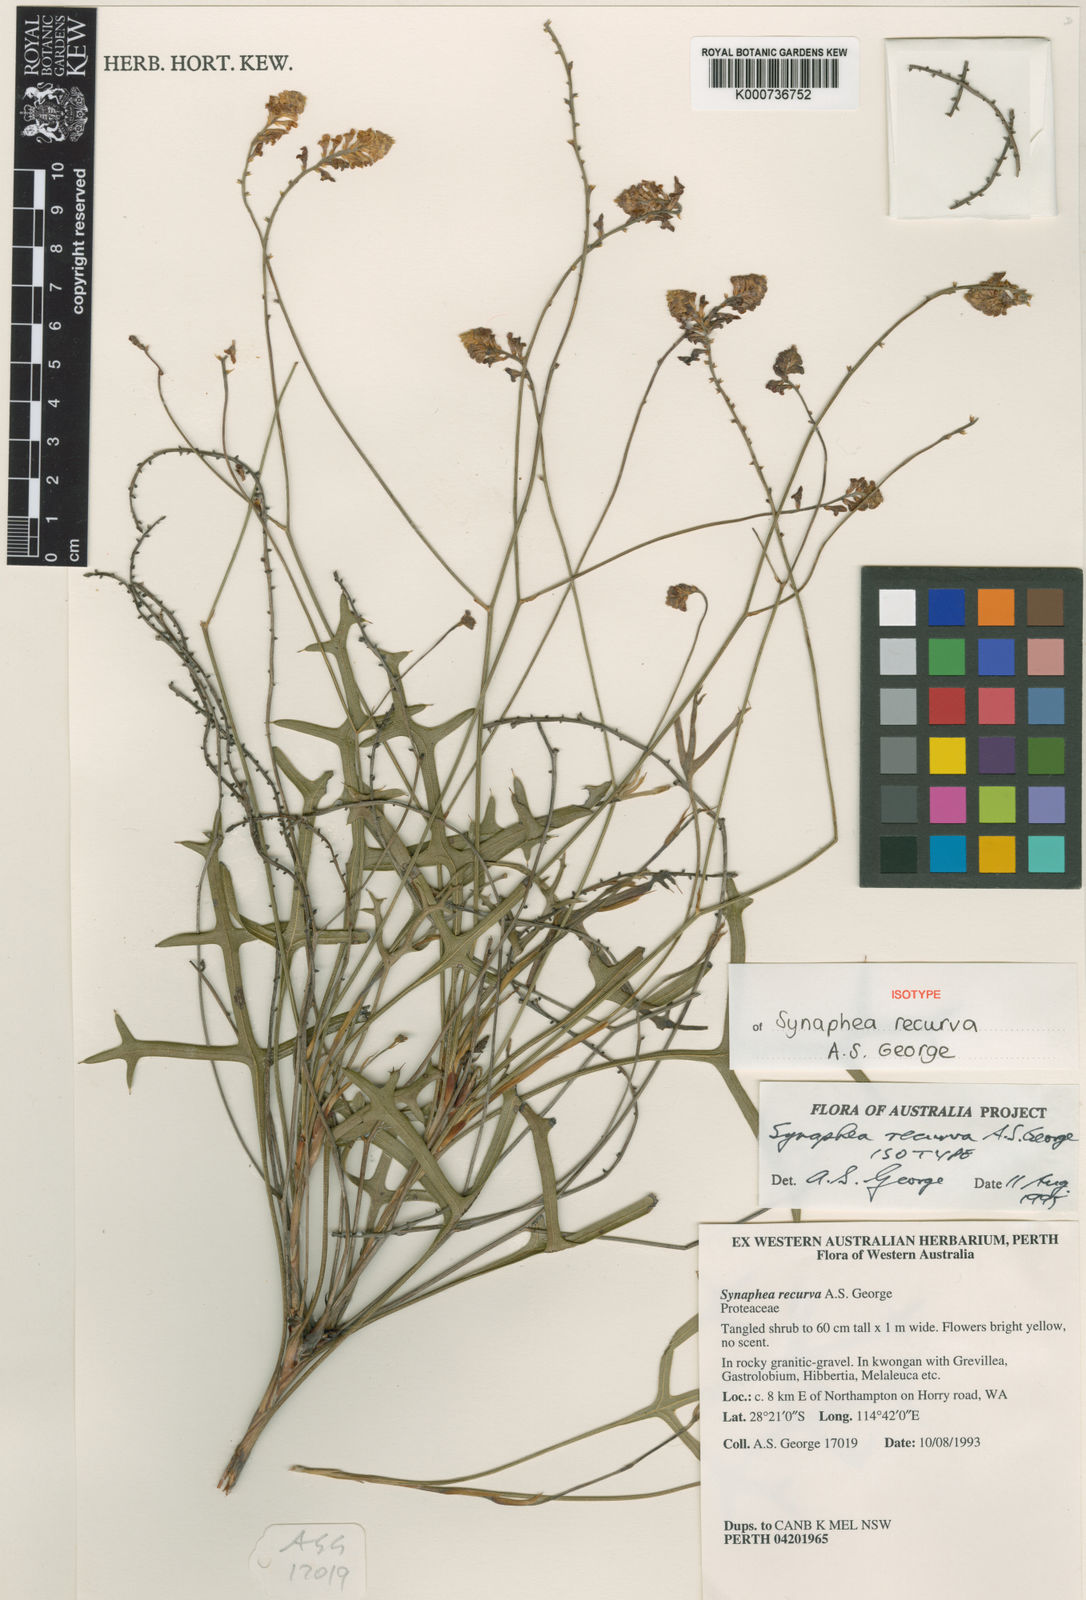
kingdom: Plantae
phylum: Tracheophyta
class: Magnoliopsida
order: Proteales
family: Proteaceae
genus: Synaphea
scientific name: Synaphea recurva
